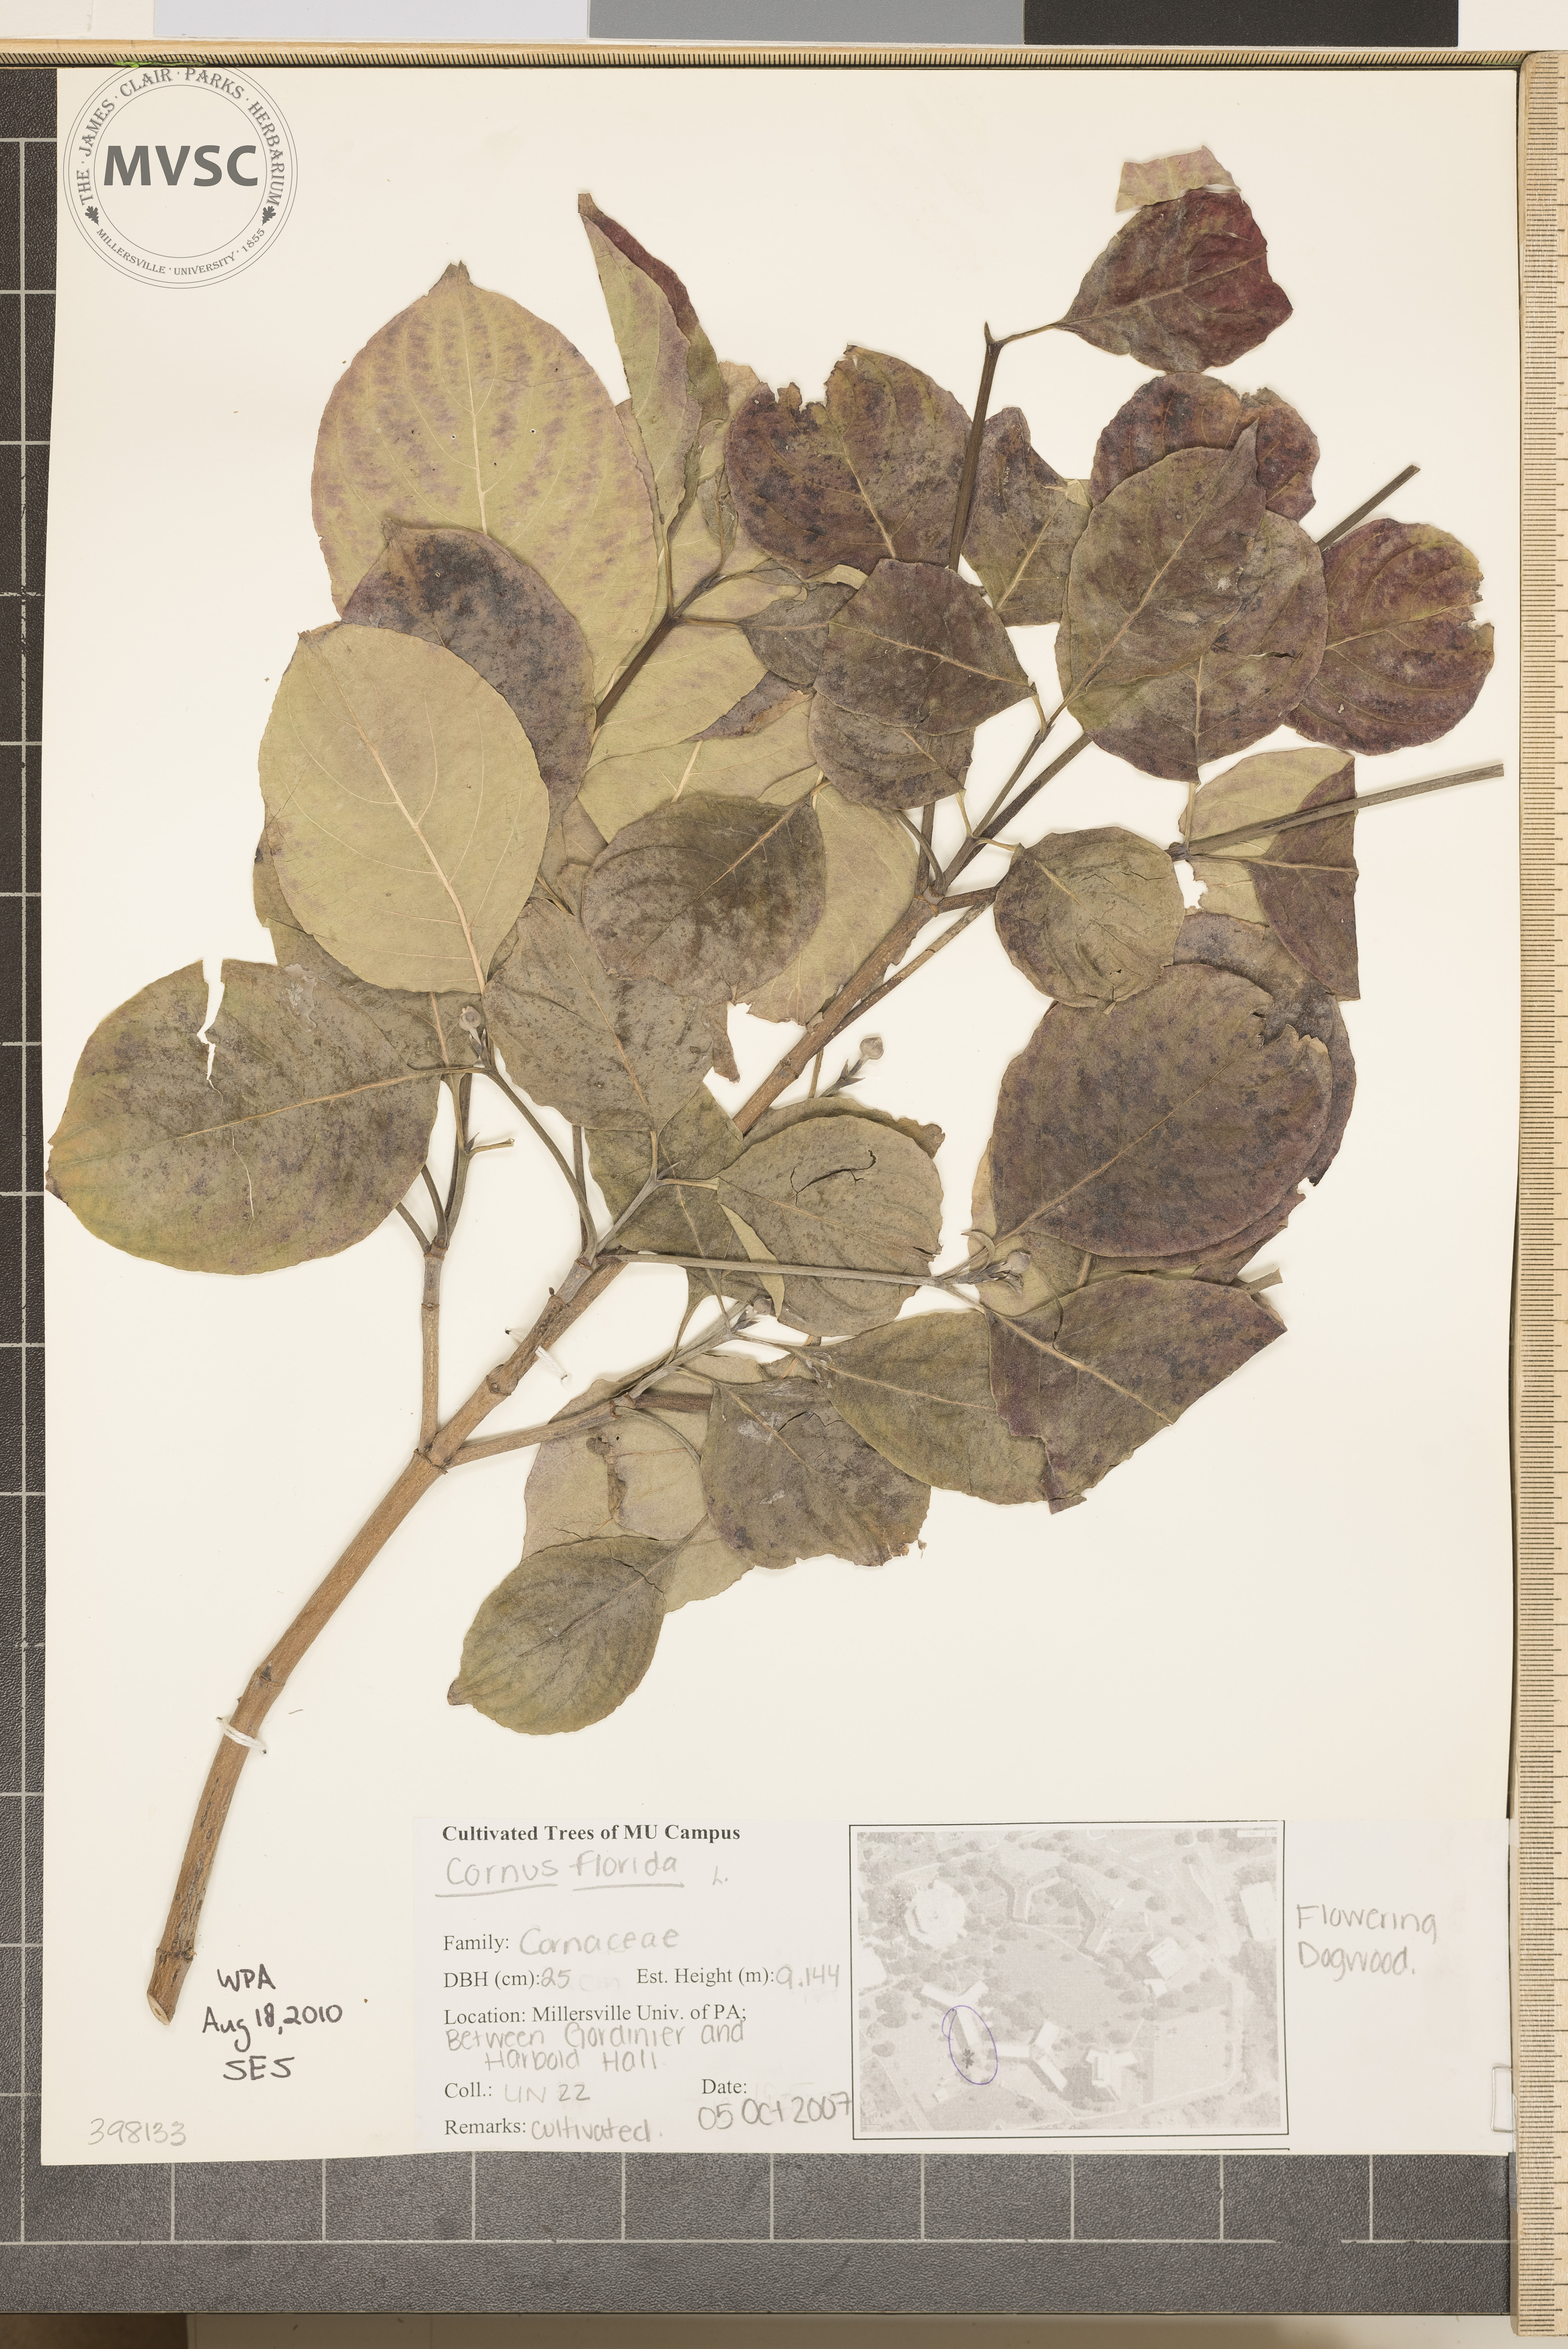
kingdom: Plantae
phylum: Tracheophyta
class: Magnoliopsida
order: Cornales
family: Cornaceae
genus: Cornus
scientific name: Cornus florida
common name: Flowering dogwood
